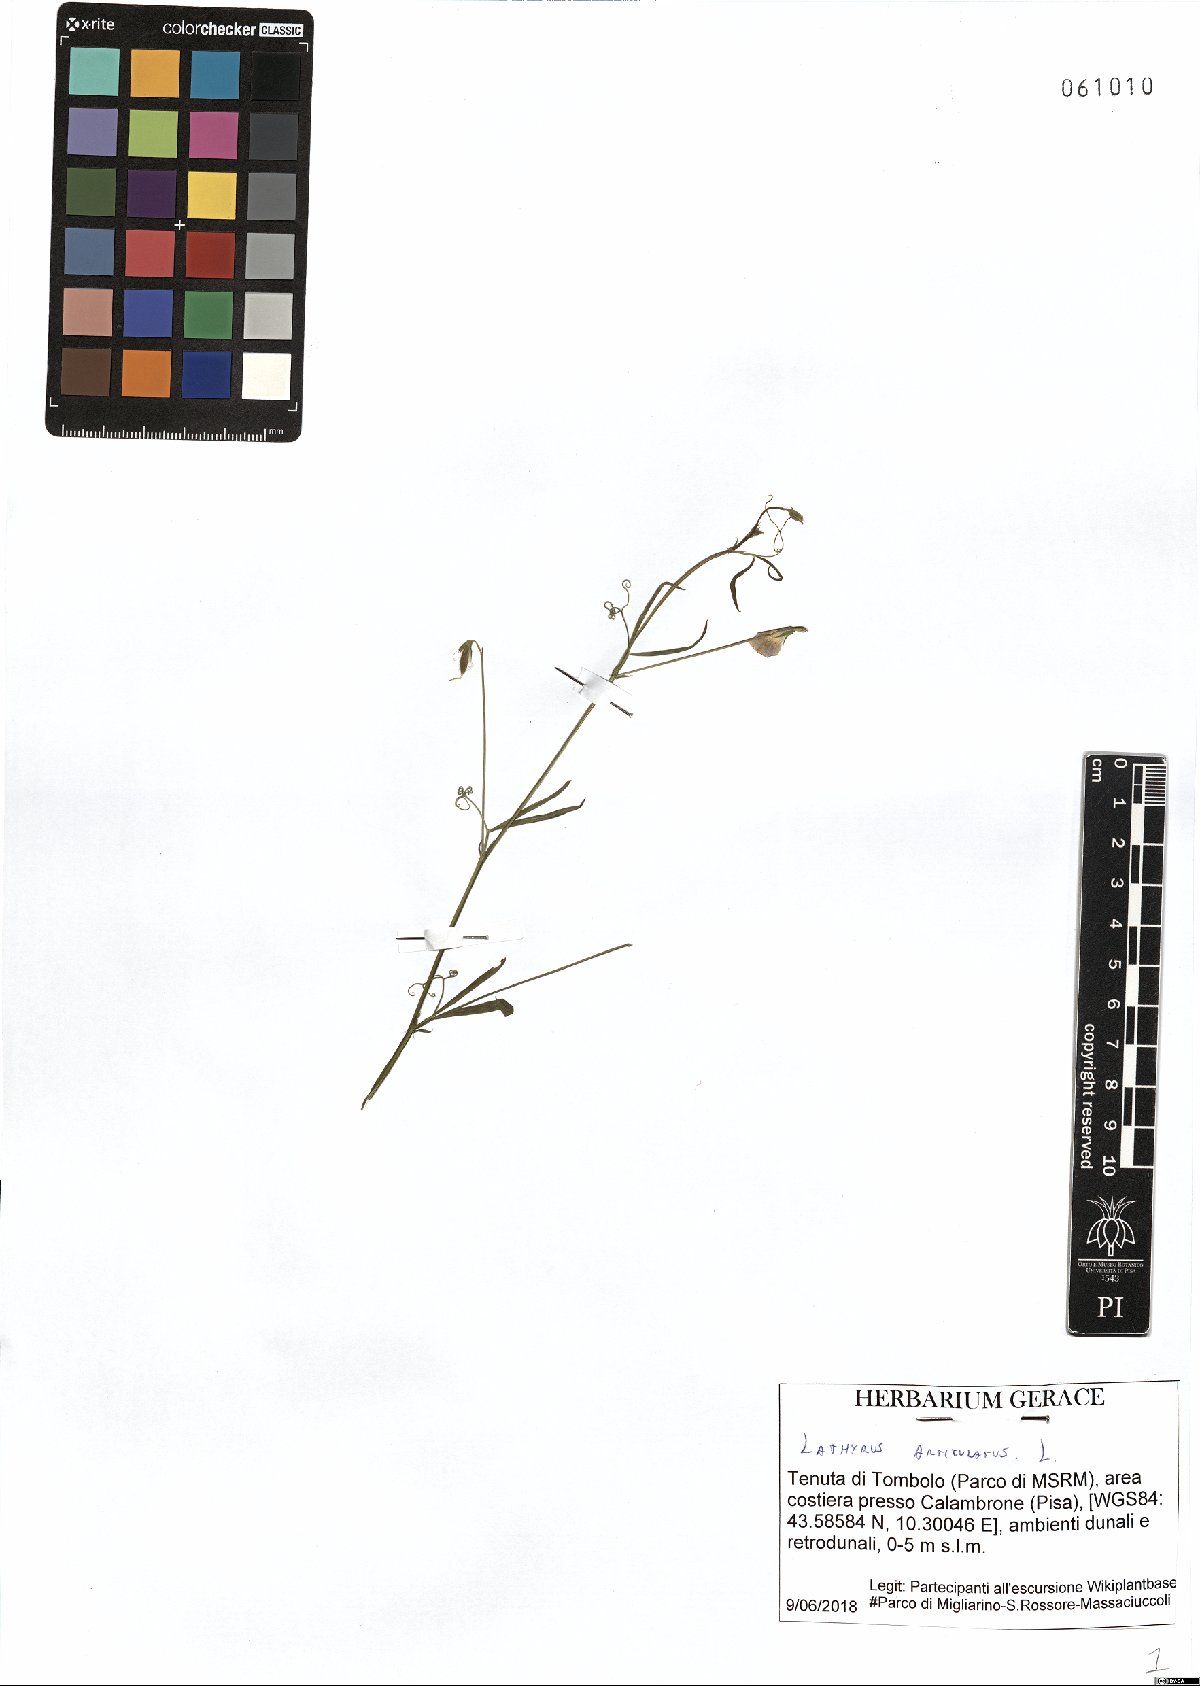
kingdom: Plantae
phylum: Tracheophyta
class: Magnoliopsida
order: Fabales
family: Fabaceae
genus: Lathyrus
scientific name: Lathyrus articulatus
